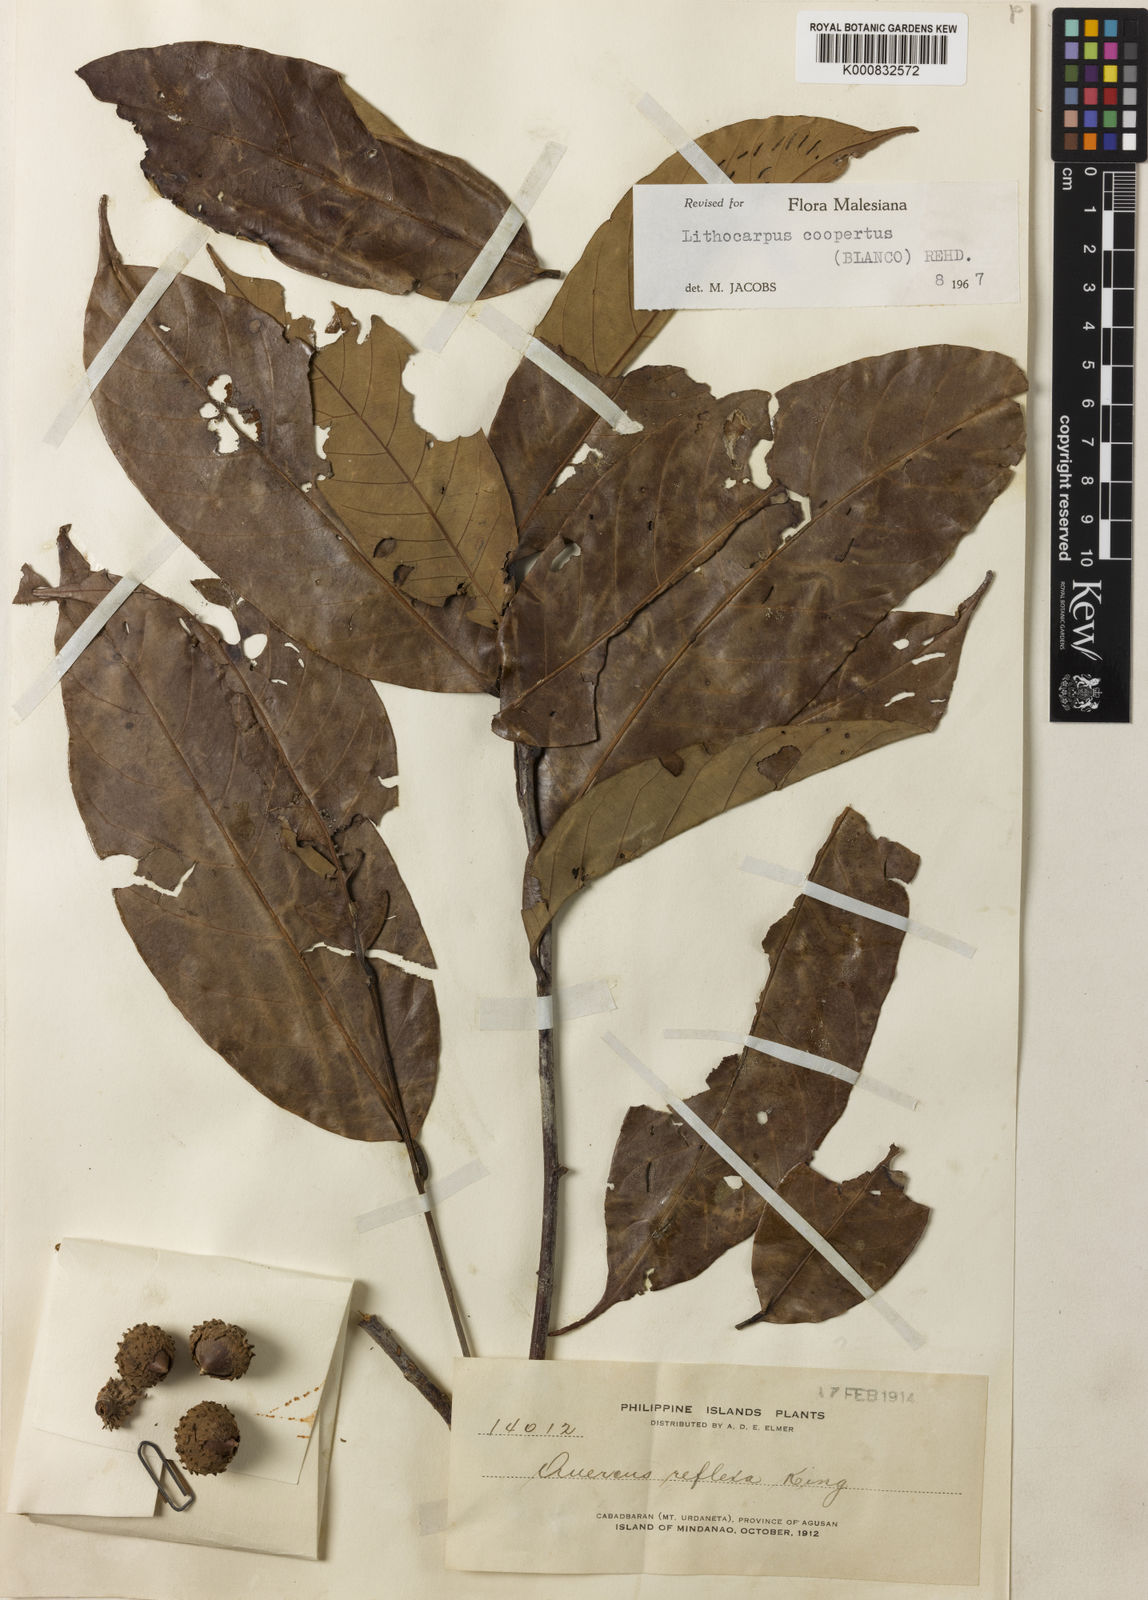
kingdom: Plantae
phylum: Tracheophyta
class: Magnoliopsida
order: Fagales
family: Fagaceae
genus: Lithocarpus
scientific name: Lithocarpus coopertus
